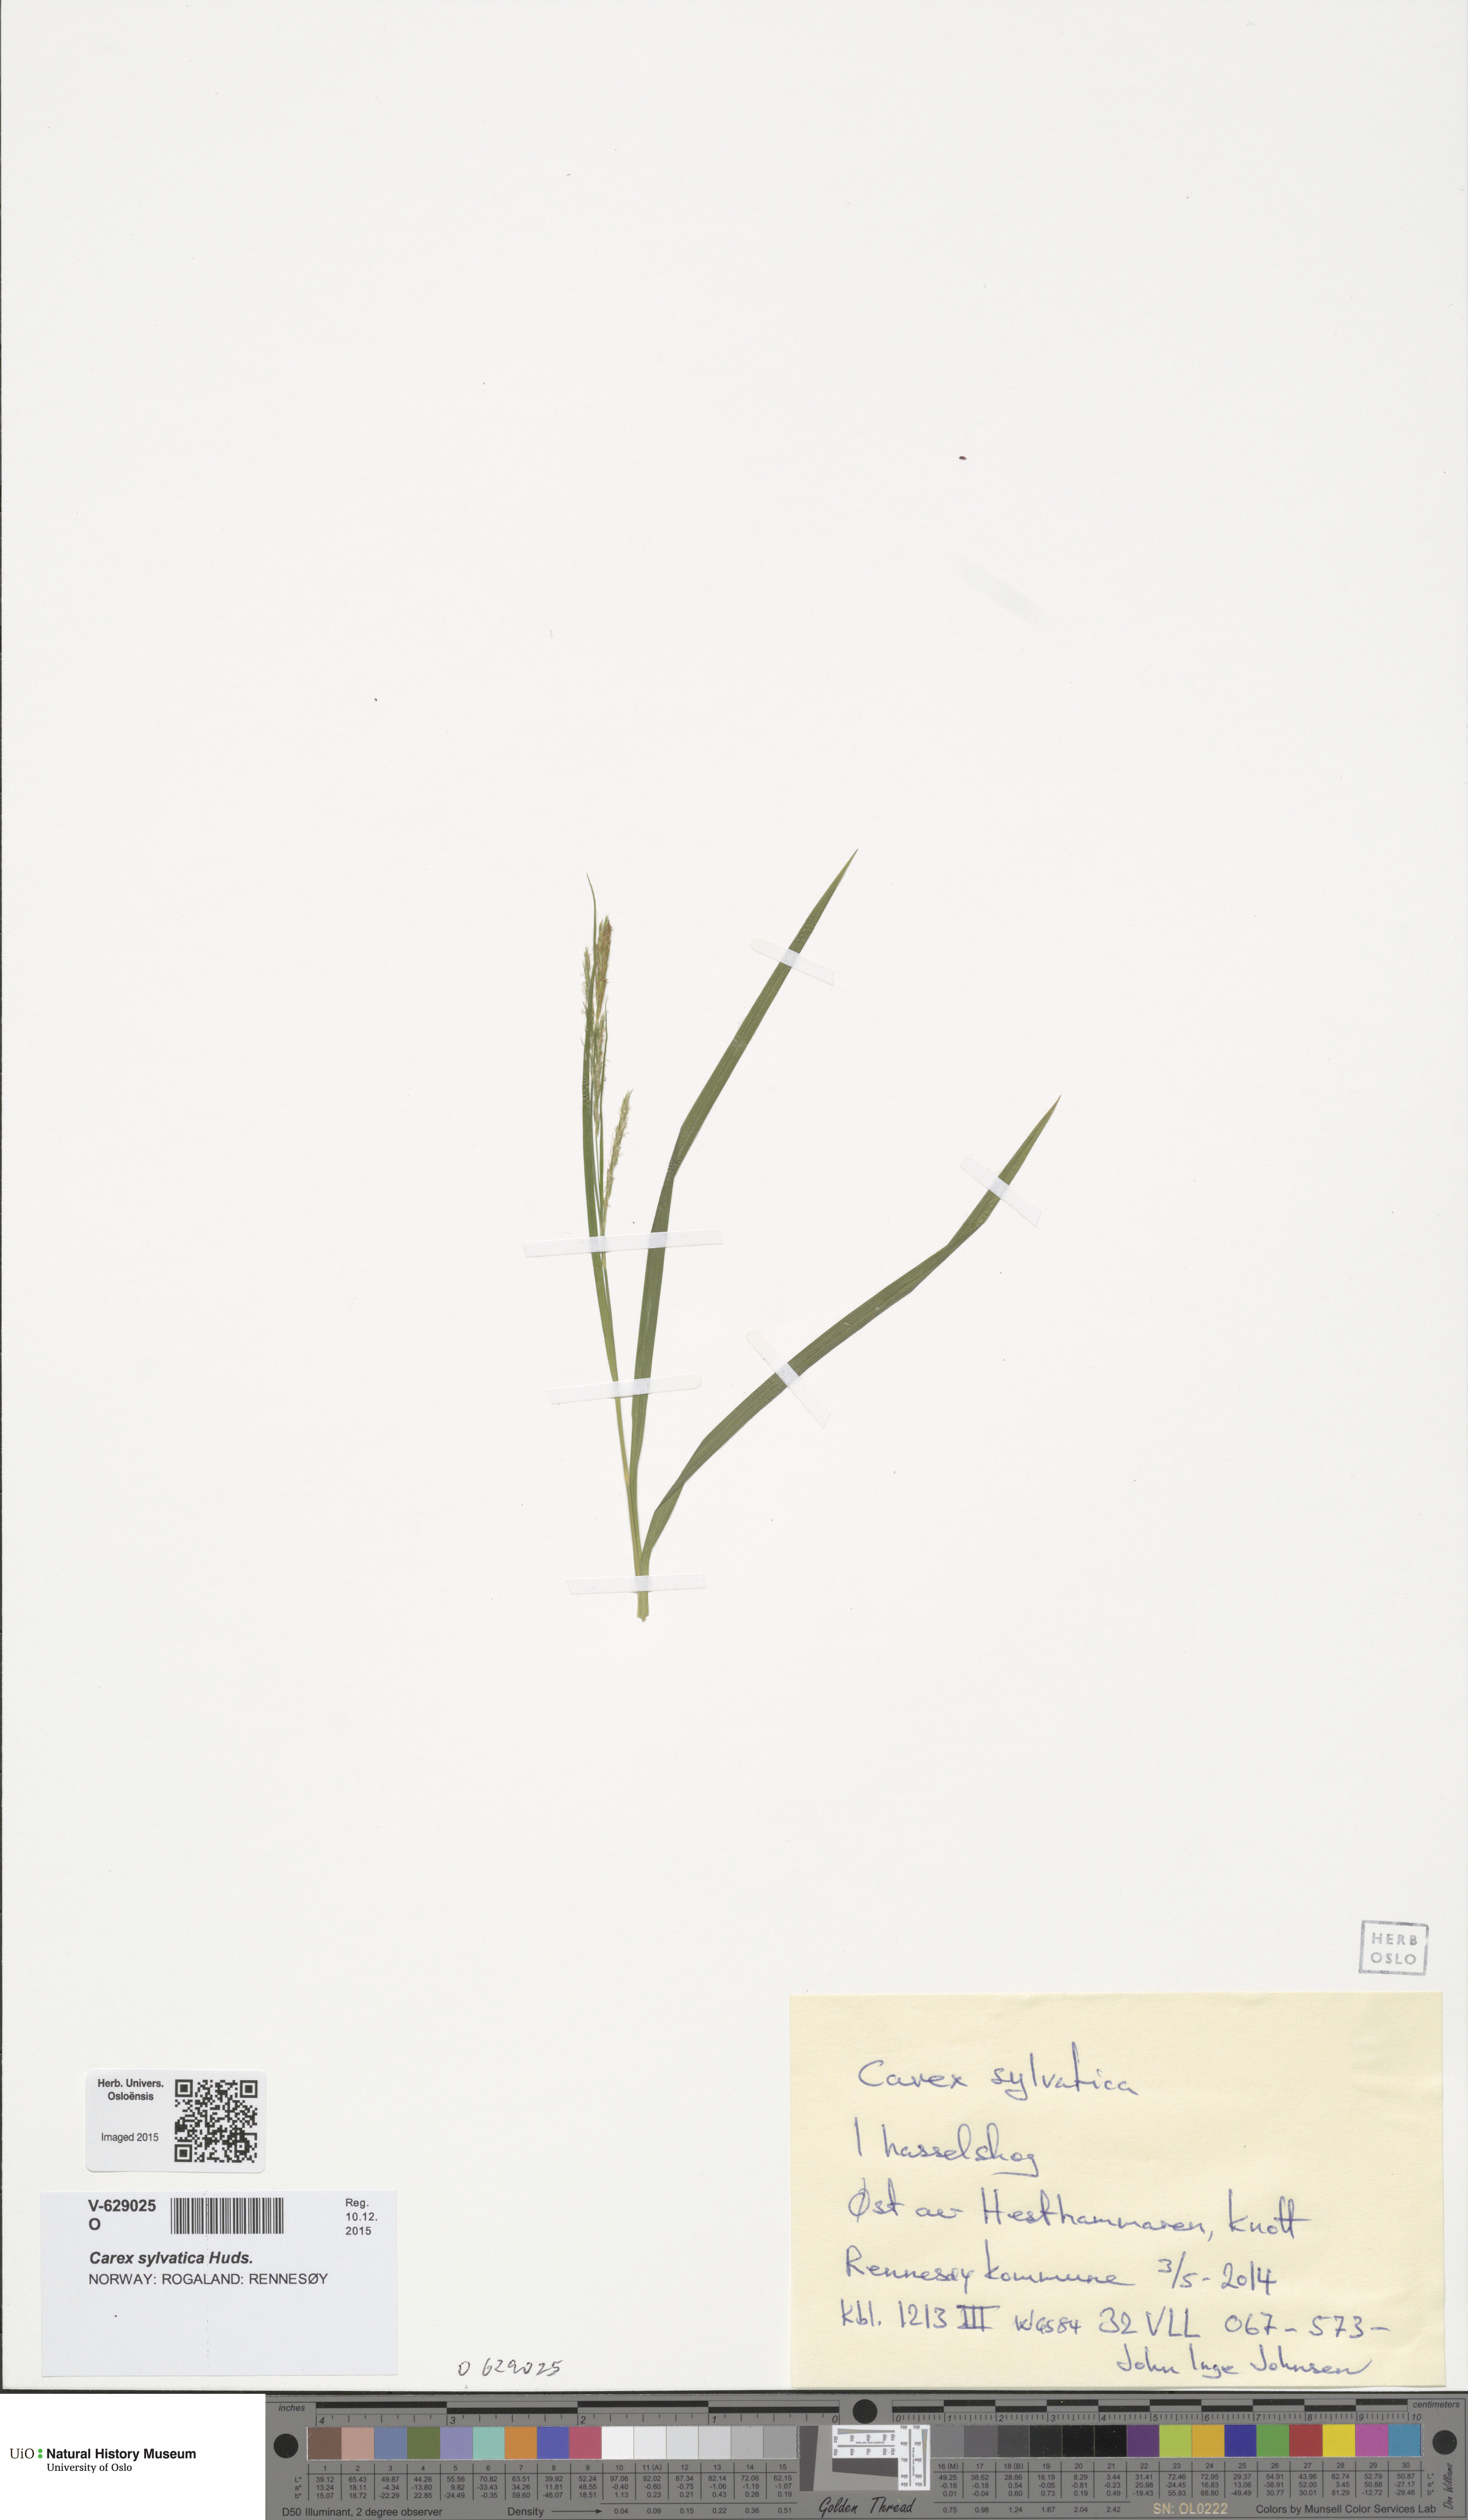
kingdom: Plantae
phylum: Tracheophyta
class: Liliopsida
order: Poales
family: Cyperaceae
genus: Carex
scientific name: Carex sylvatica
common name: Wood-sedge
